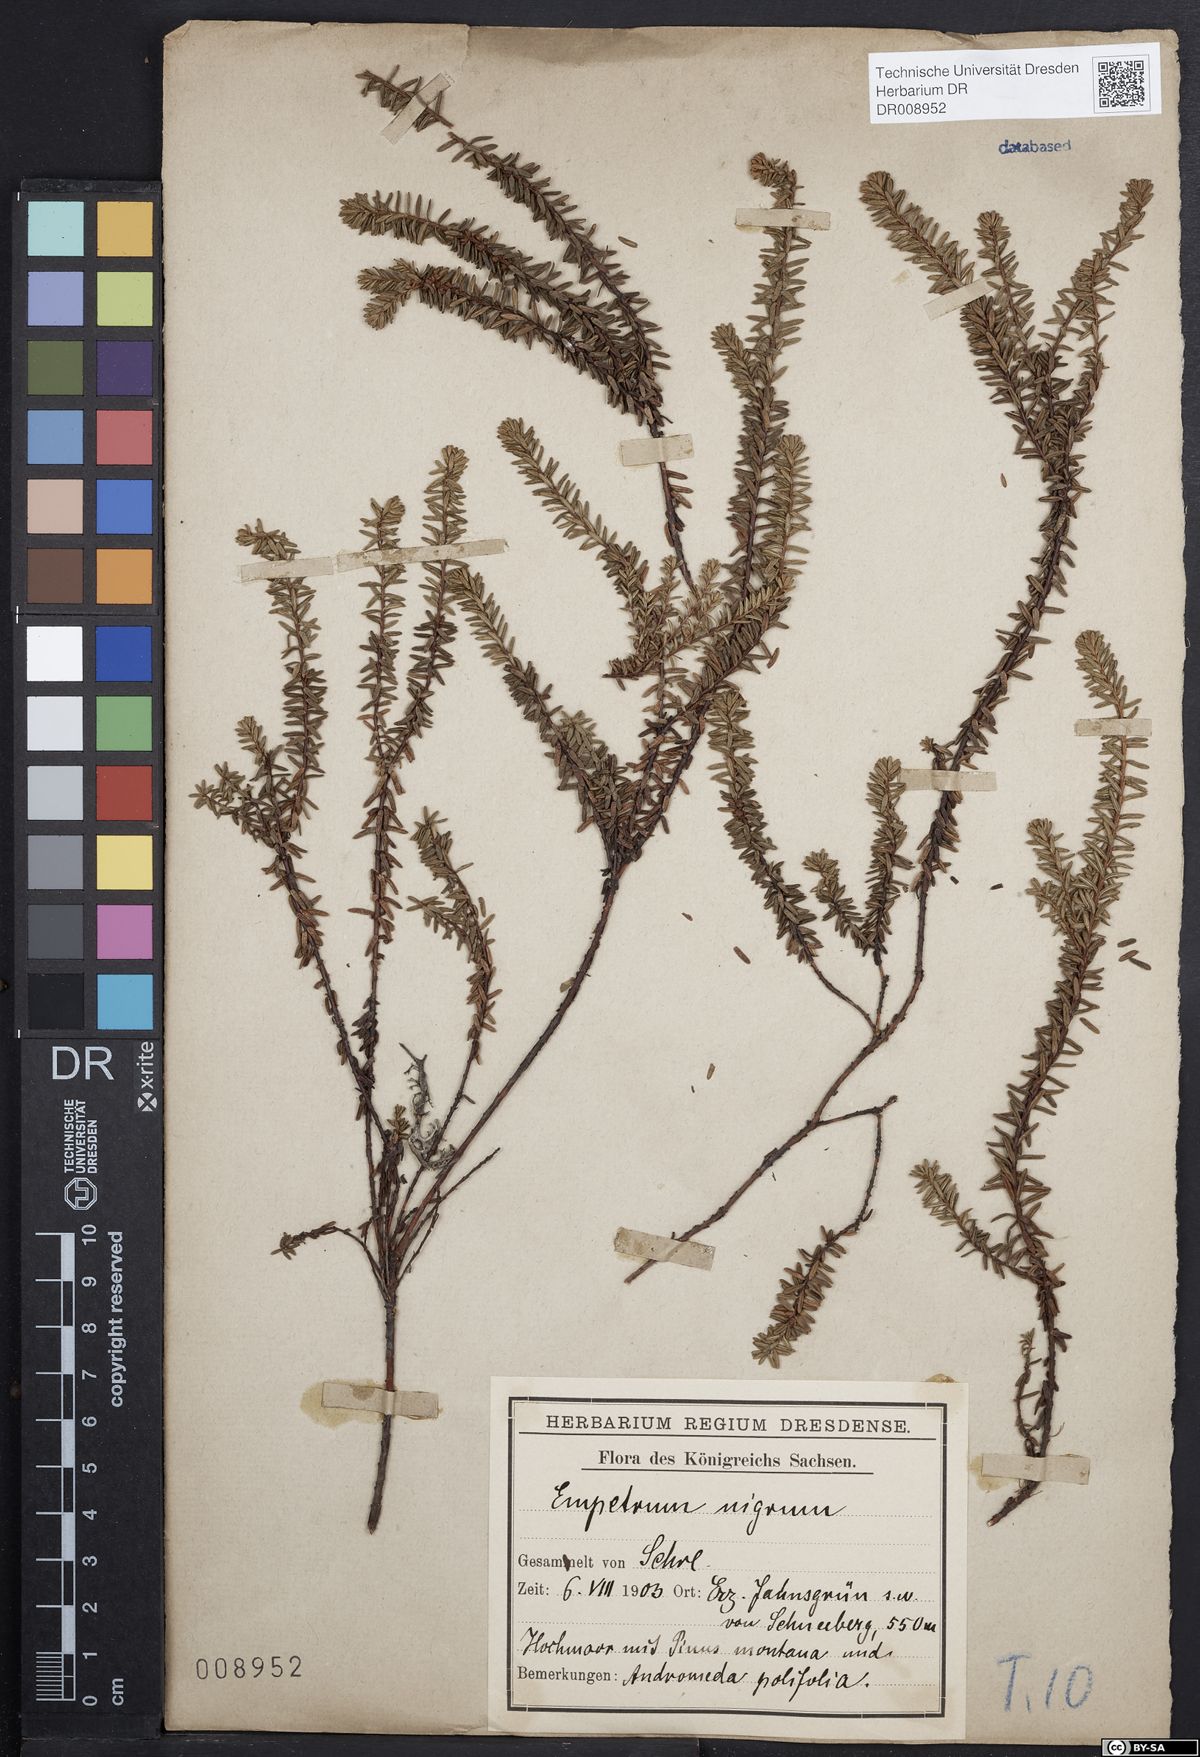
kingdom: Plantae
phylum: Tracheophyta
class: Magnoliopsida
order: Ericales
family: Ericaceae
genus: Empetrum
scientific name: Empetrum nigrum
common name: Black crowberry
